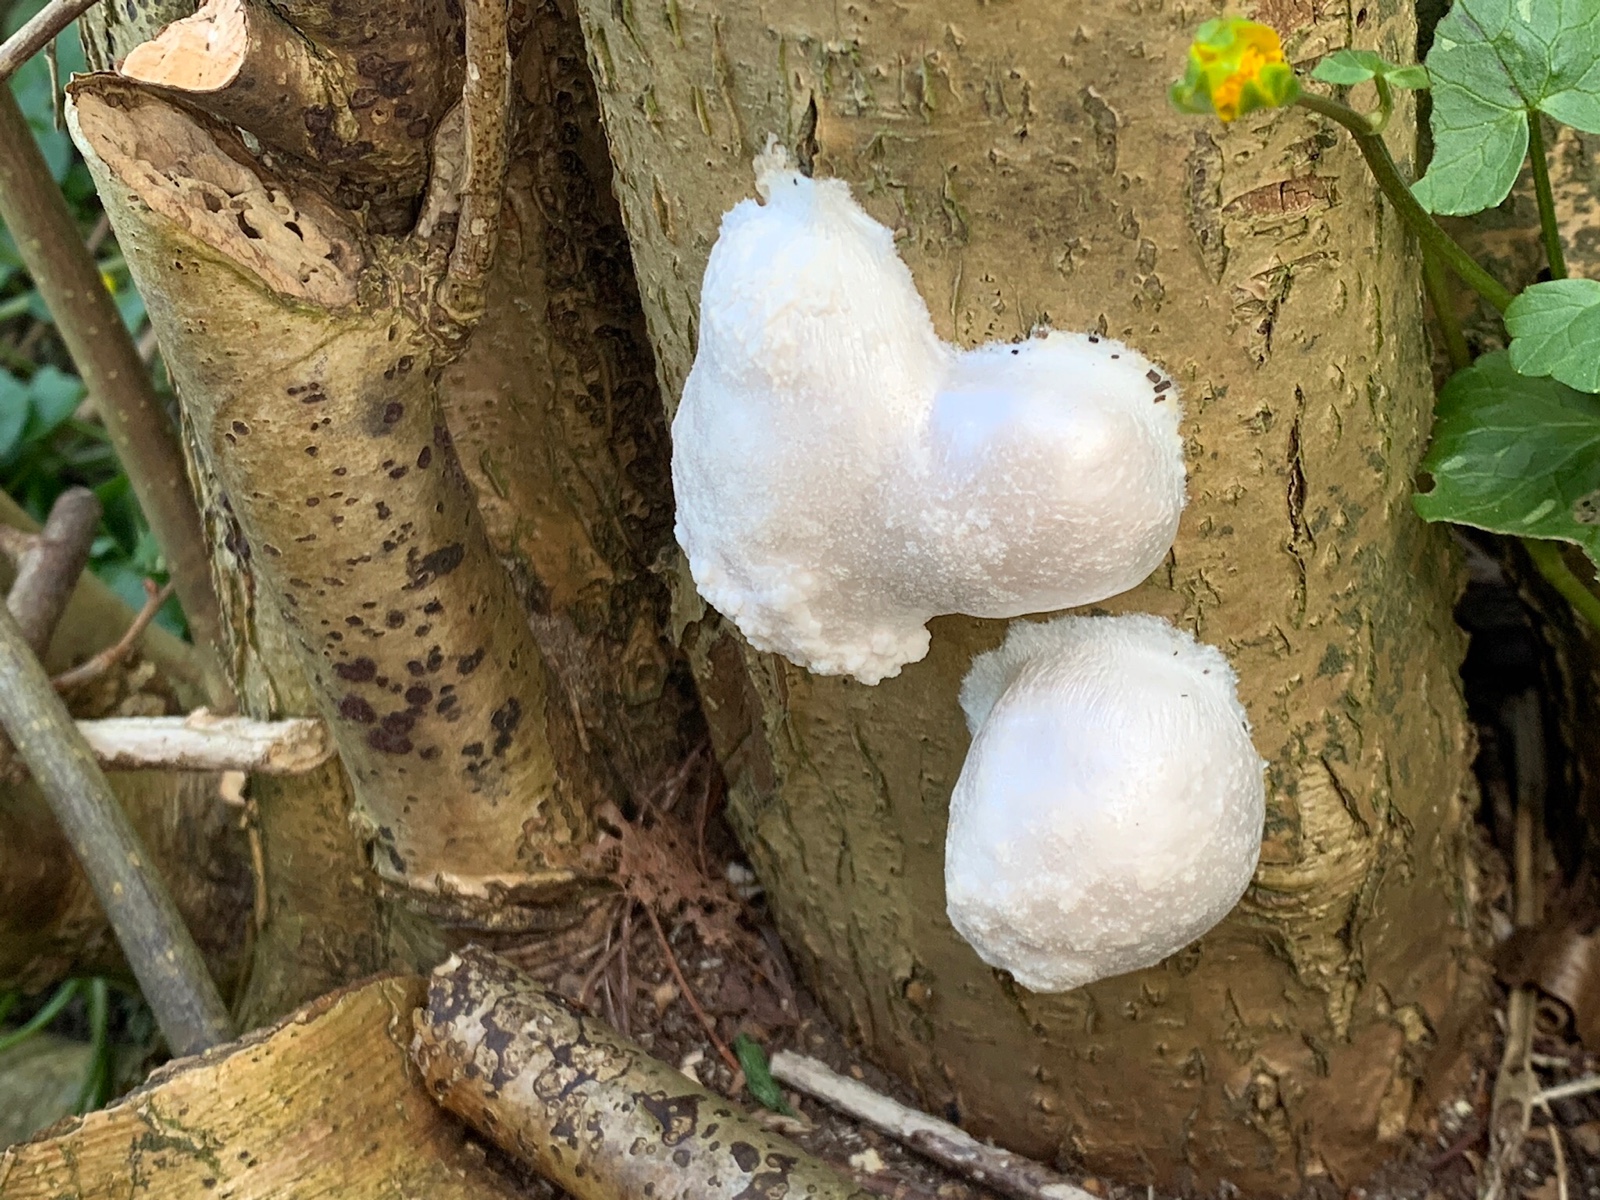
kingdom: Protozoa
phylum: Mycetozoa
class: Myxomycetes
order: Cribrariales
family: Tubiferaceae
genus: Reticularia
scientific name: Reticularia lycoperdon
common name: skinnende støvpude
